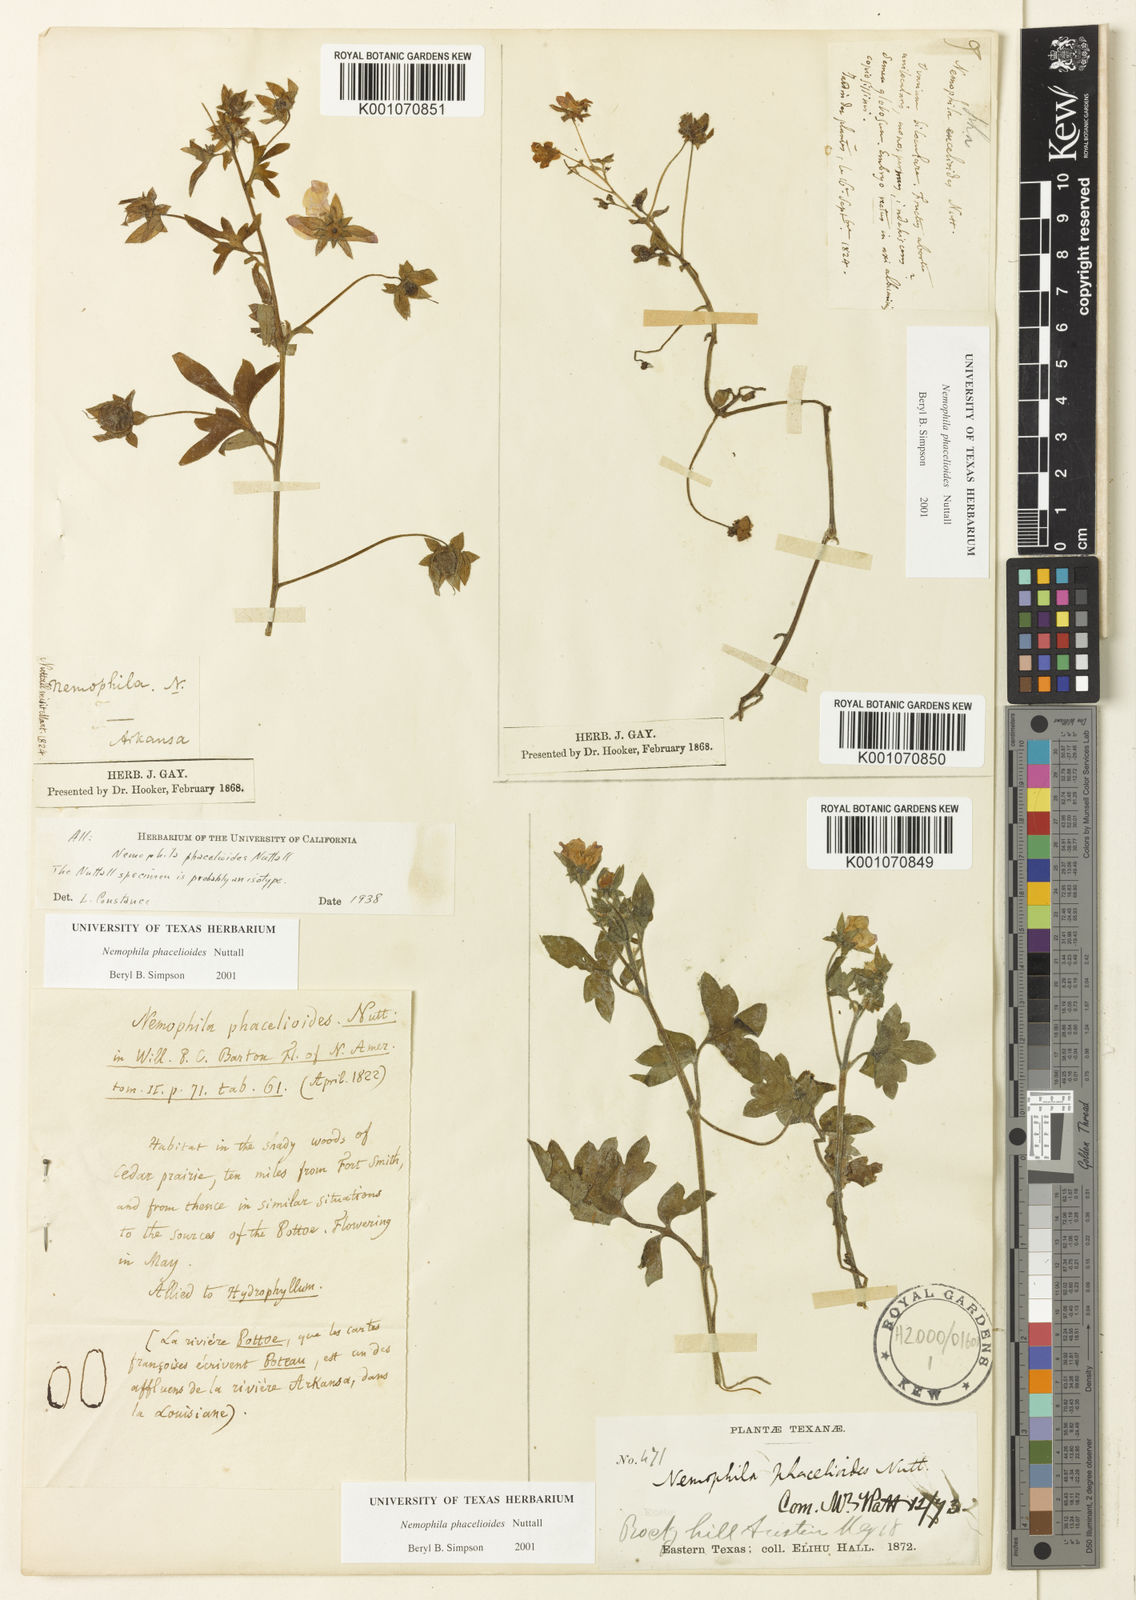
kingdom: Plantae
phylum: Tracheophyta
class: Magnoliopsida
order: Boraginales
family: Hydrophyllaceae
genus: Nemophila
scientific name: Nemophila
